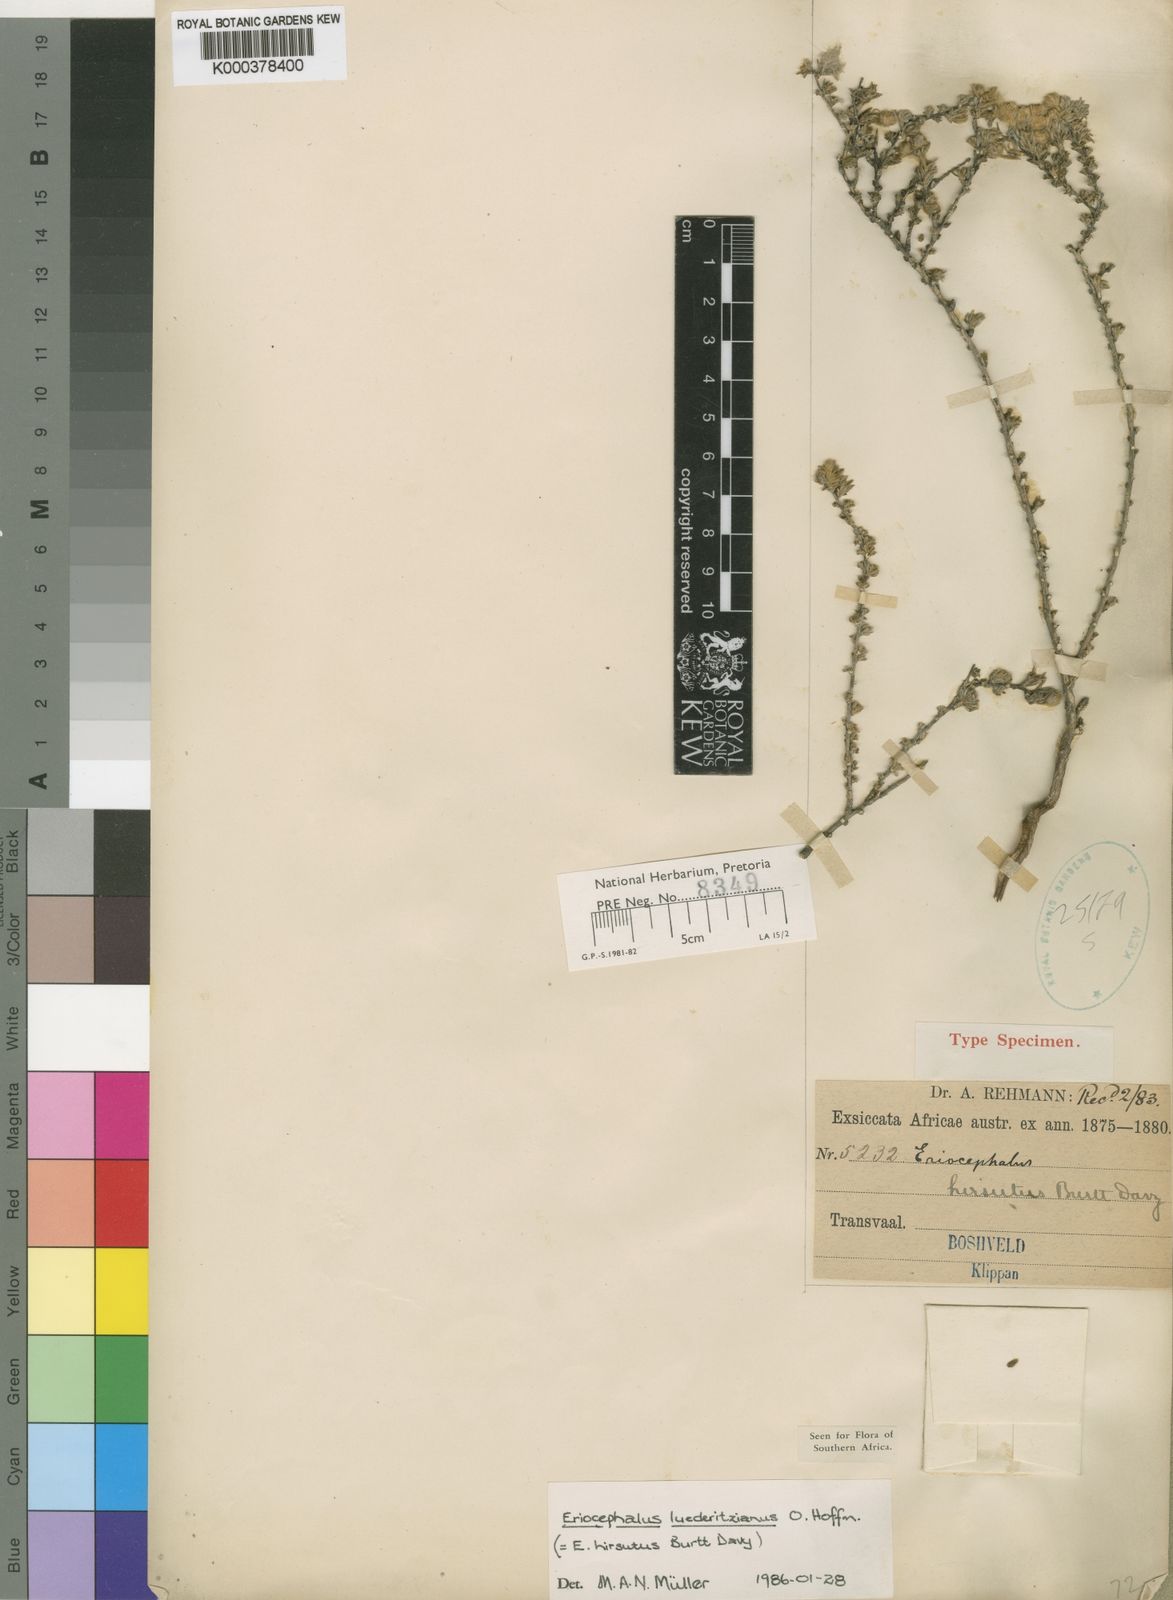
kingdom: Plantae
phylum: Tracheophyta
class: Magnoliopsida
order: Asterales
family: Asteraceae
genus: Eriocephalus
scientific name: Eriocephalus microphyllus
